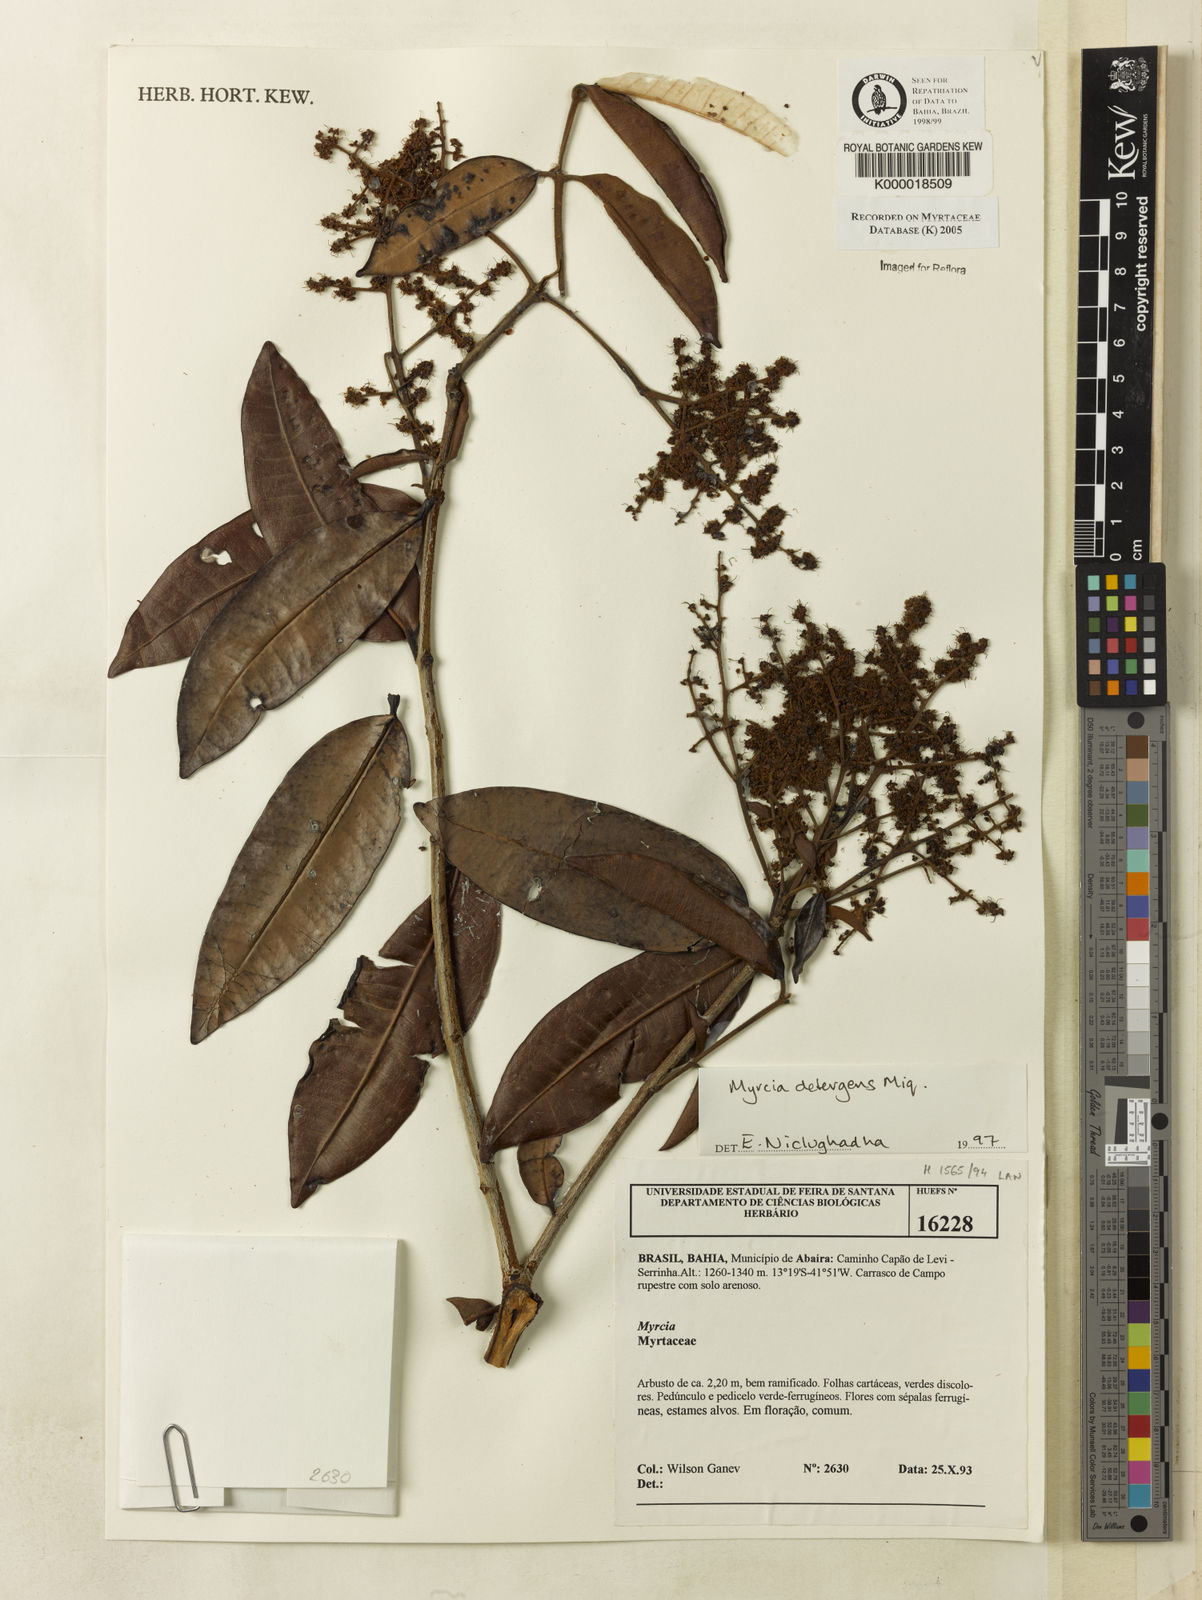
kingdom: Plantae
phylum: Tracheophyta
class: Magnoliopsida
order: Myrtales
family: Myrtaceae
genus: Myrcia
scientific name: Myrcia amazonica
